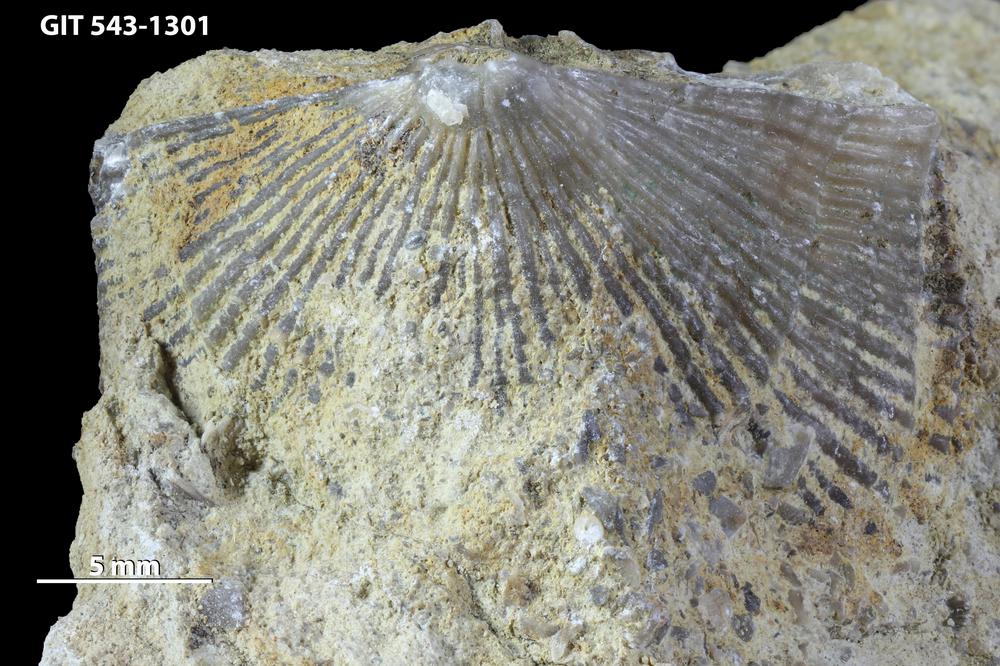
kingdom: Animalia
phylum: Brachiopoda
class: Rhynchonellata
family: Clitambonitidae
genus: Vellamo
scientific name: Vellamo oandoensis
